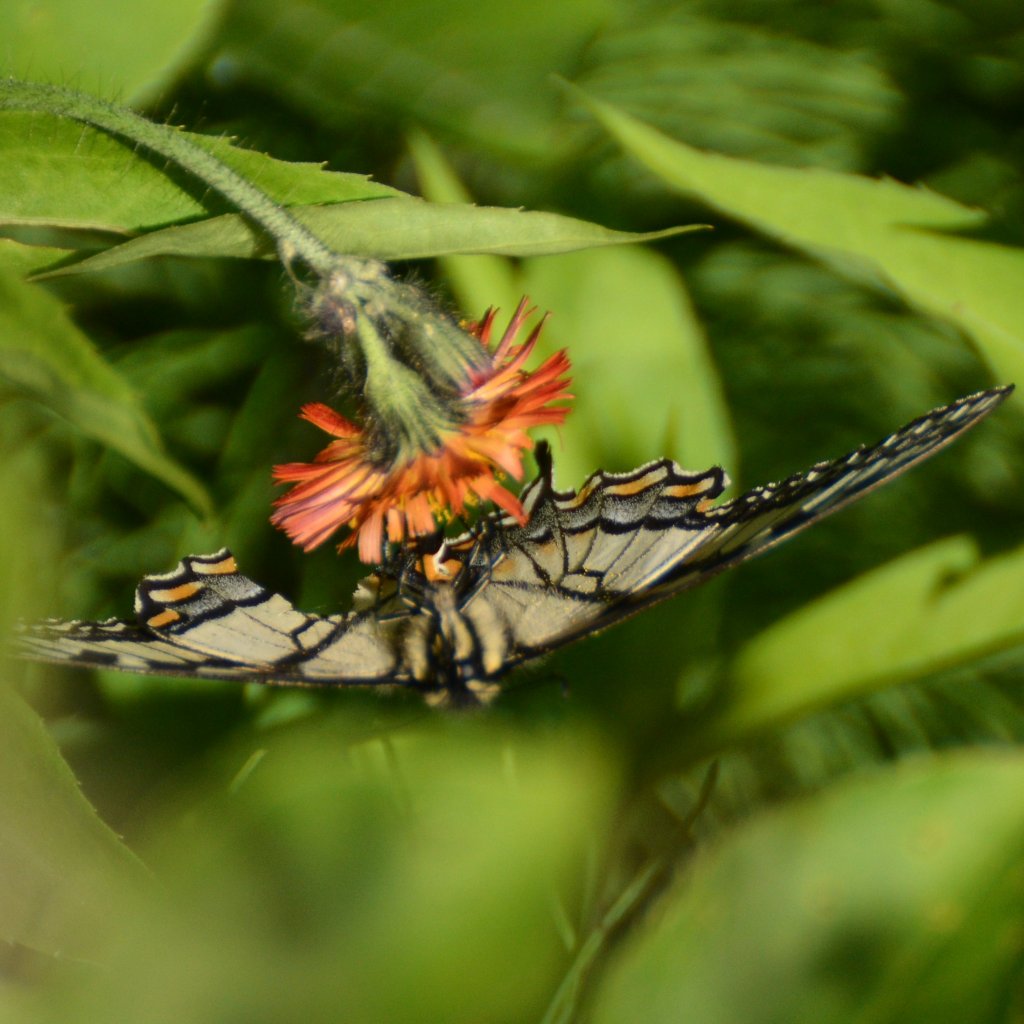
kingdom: Animalia
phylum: Arthropoda
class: Insecta
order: Lepidoptera
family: Papilionidae
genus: Pterourus
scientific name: Pterourus canadensis
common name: Canadian Tiger Swallowtail
